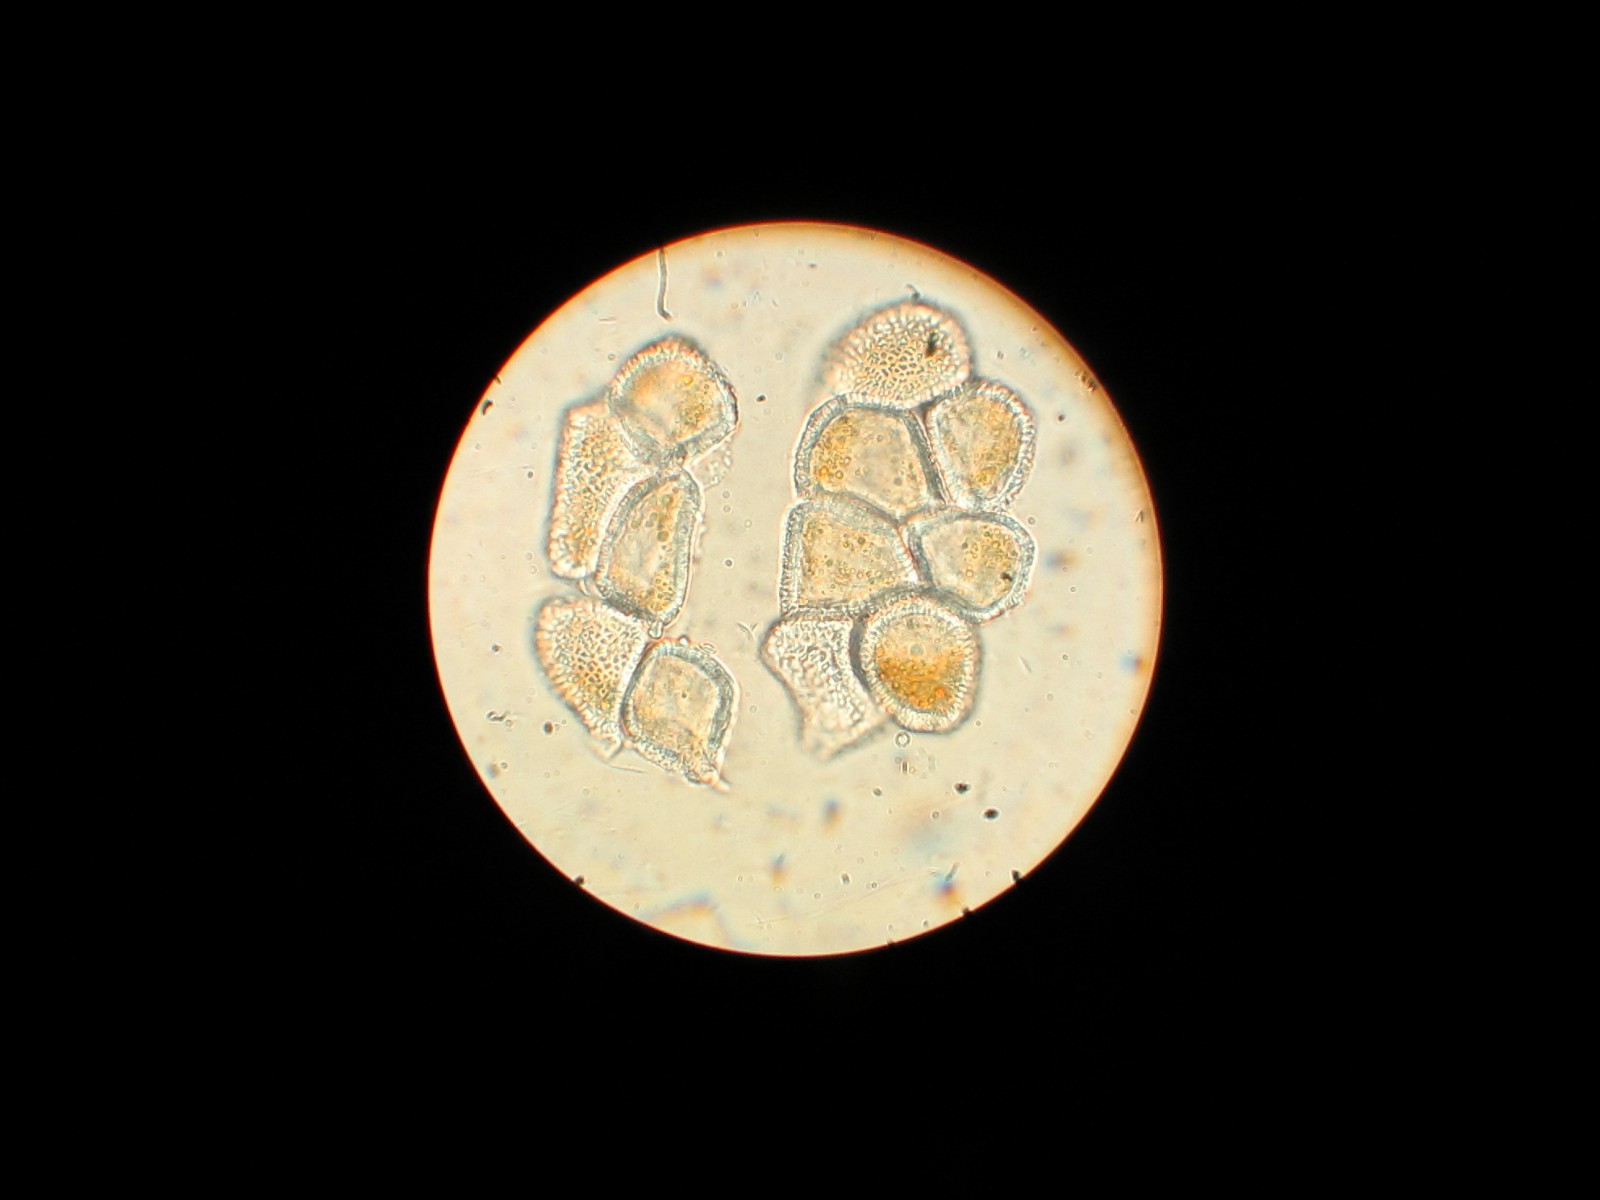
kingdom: Fungi
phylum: Basidiomycota
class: Pucciniomycetes
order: Pucciniales
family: Pucciniaceae
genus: Puccinia
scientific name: Puccinia striiformis
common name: stribe-tvecellerust
